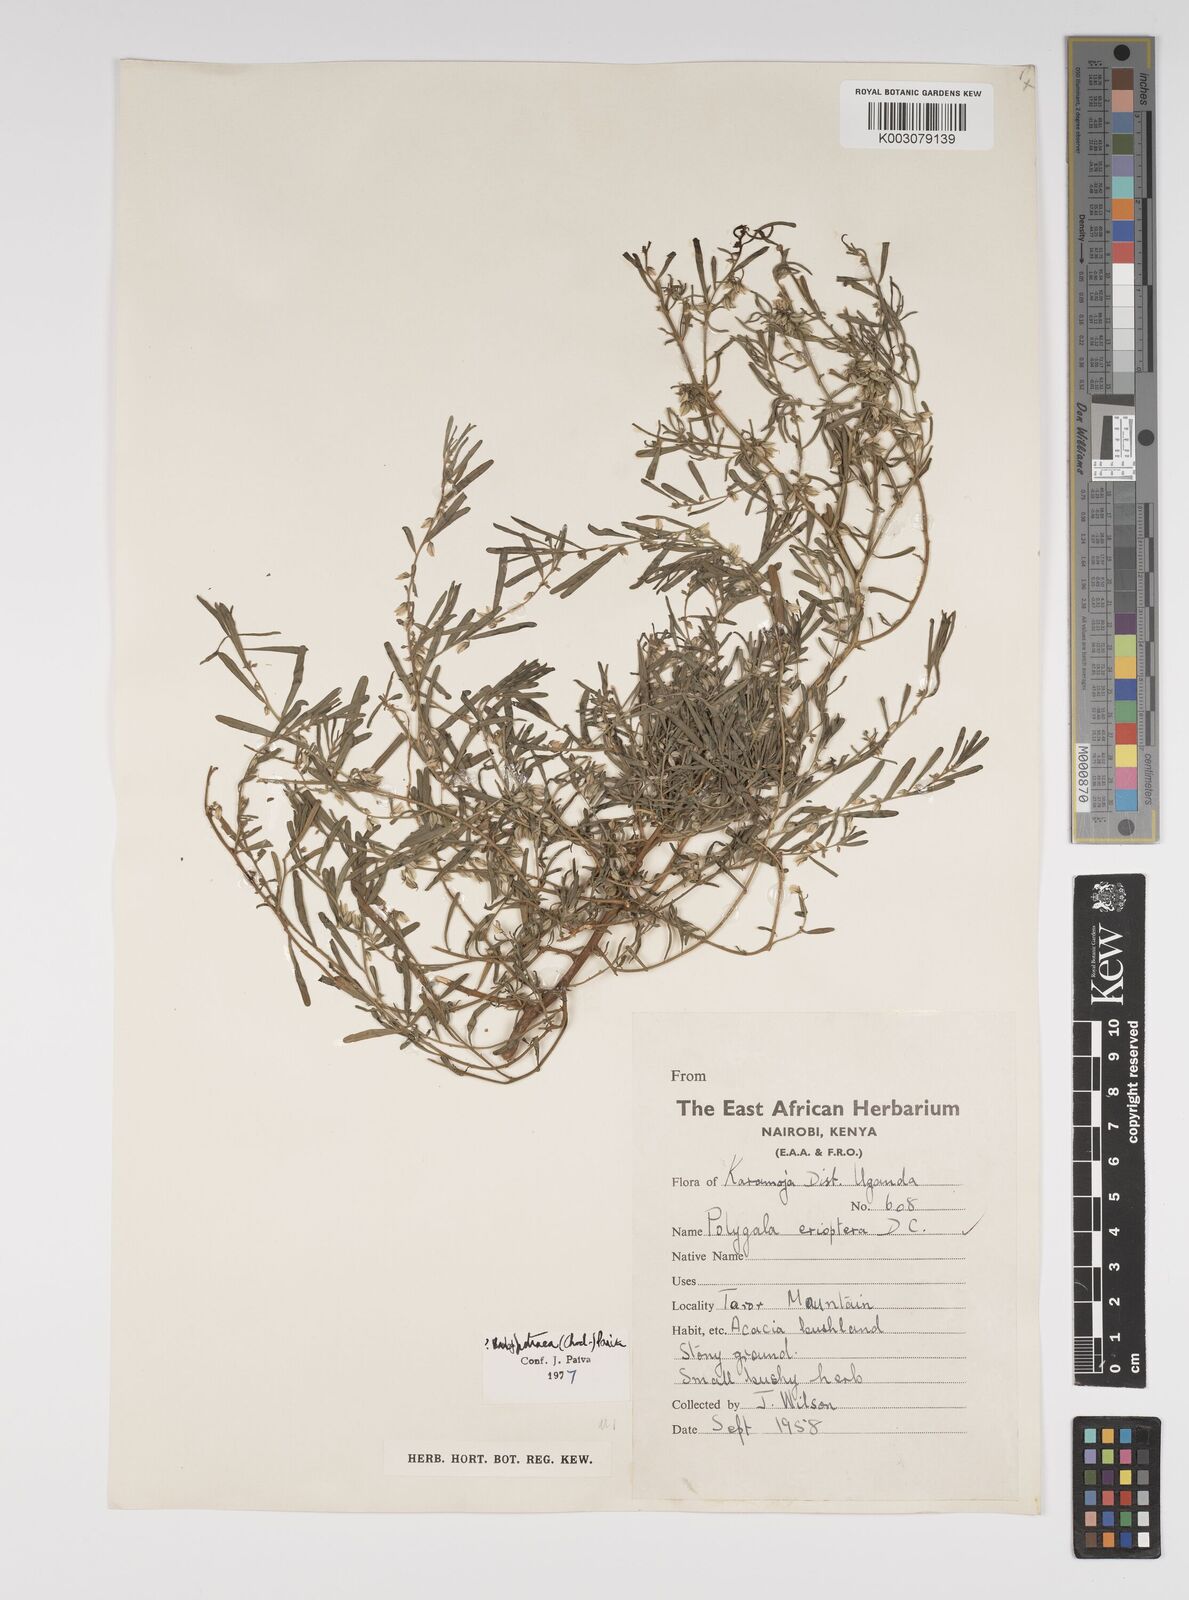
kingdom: Plantae
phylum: Tracheophyta
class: Magnoliopsida
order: Fabales
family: Polygalaceae
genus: Polygala
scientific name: Polygala erioptera
